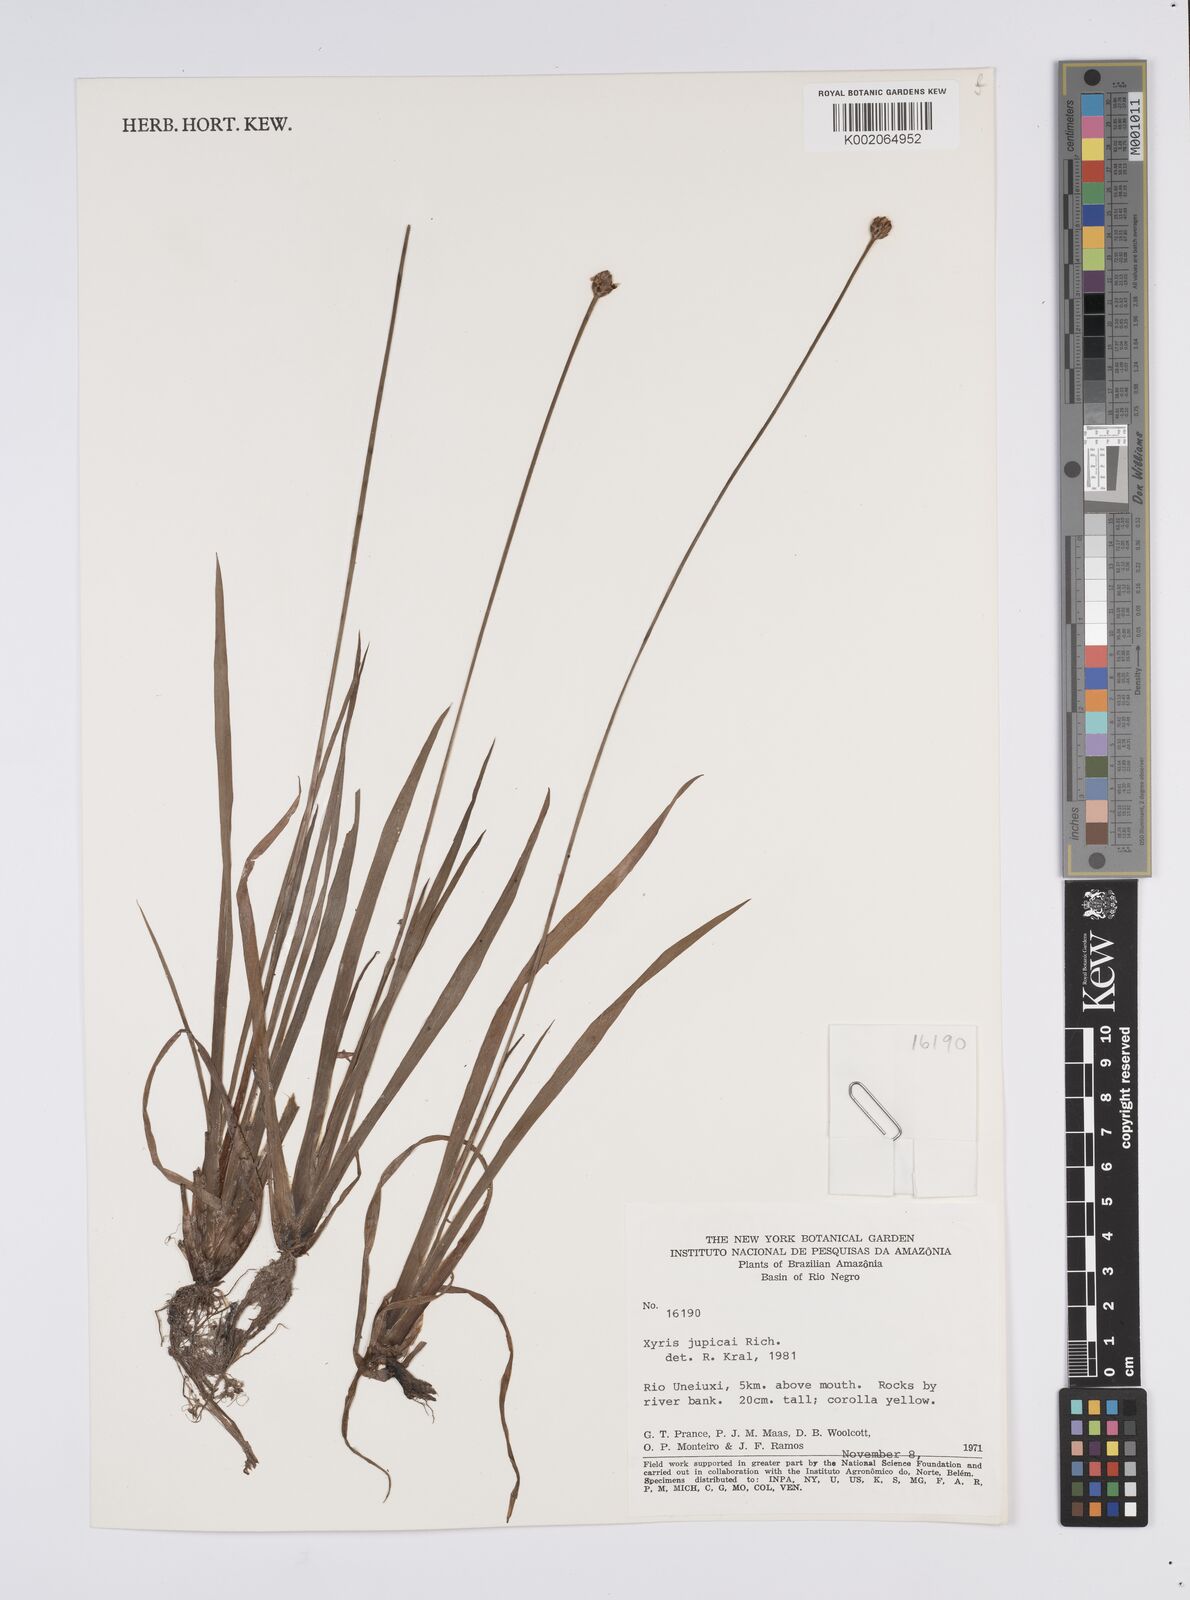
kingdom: Plantae
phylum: Tracheophyta
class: Liliopsida
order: Poales
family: Xyridaceae
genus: Xyris
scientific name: Xyris jupicai
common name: Richard's yelloweyed grass
